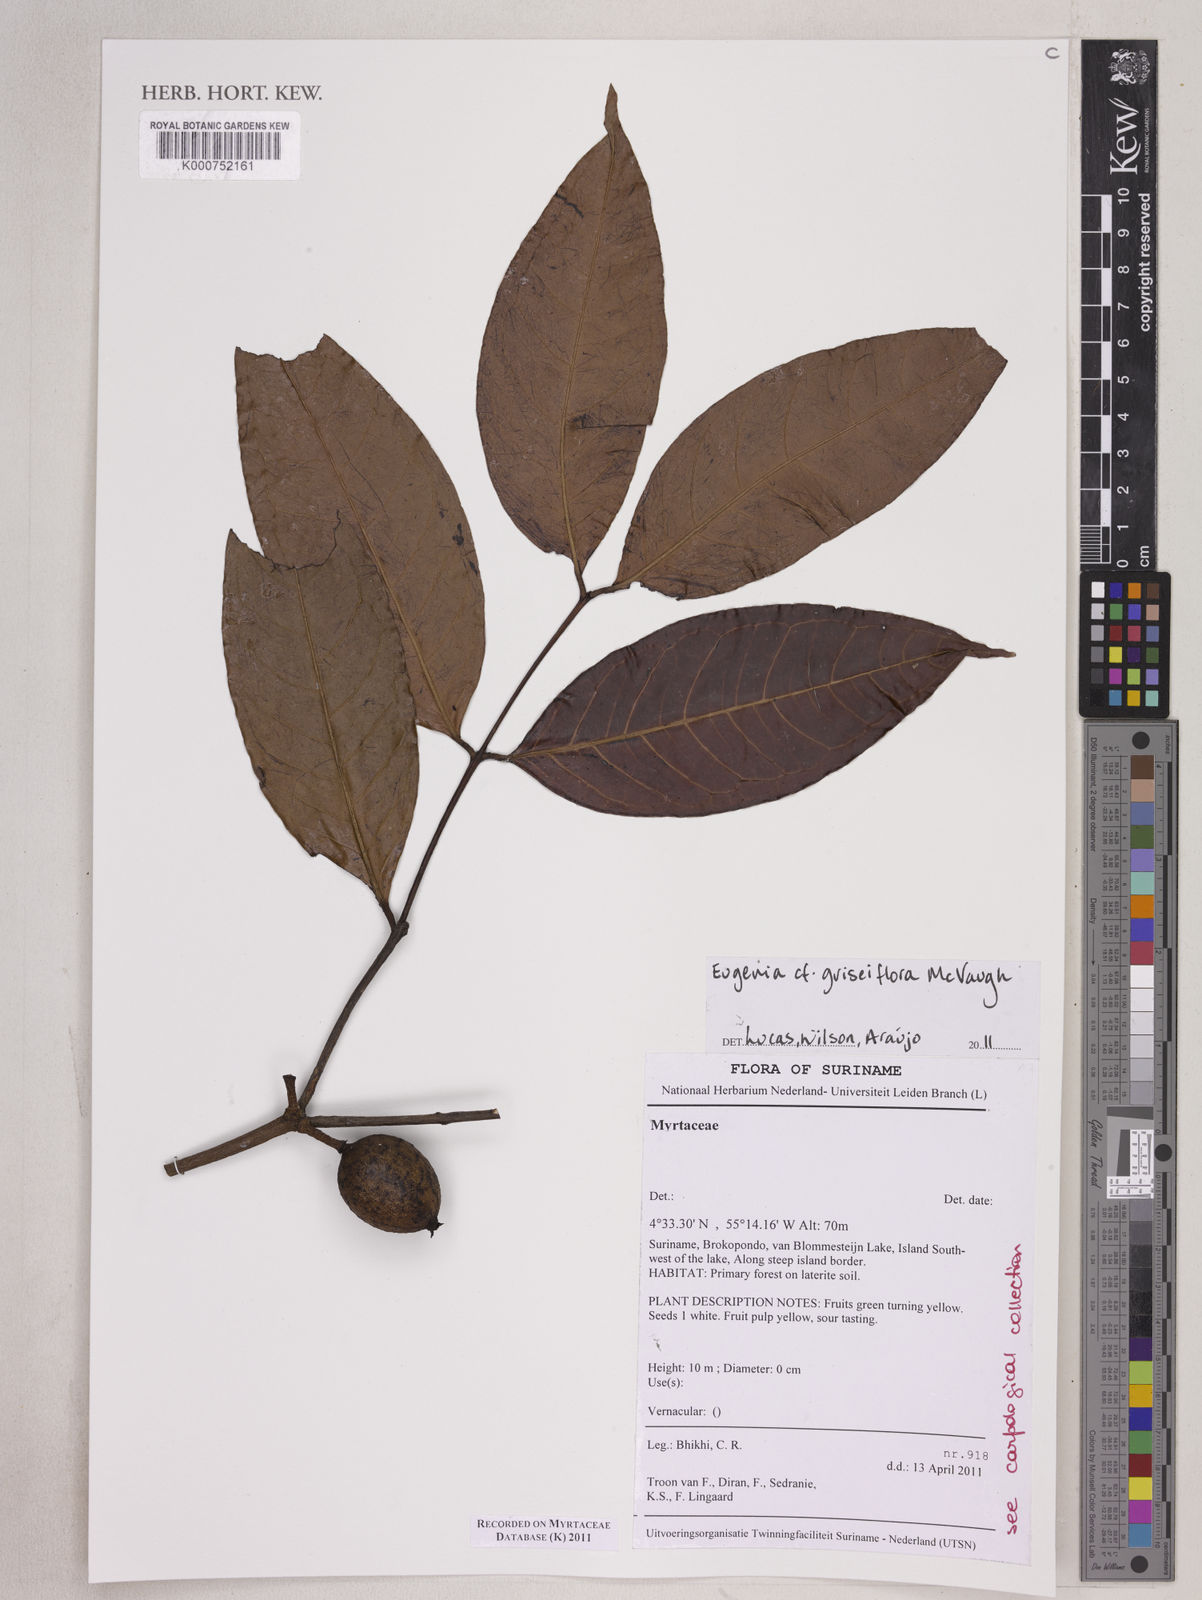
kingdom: Plantae
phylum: Tracheophyta
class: Magnoliopsida
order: Myrtales
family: Myrtaceae
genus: Eugenia
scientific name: Eugenia griseiflora
